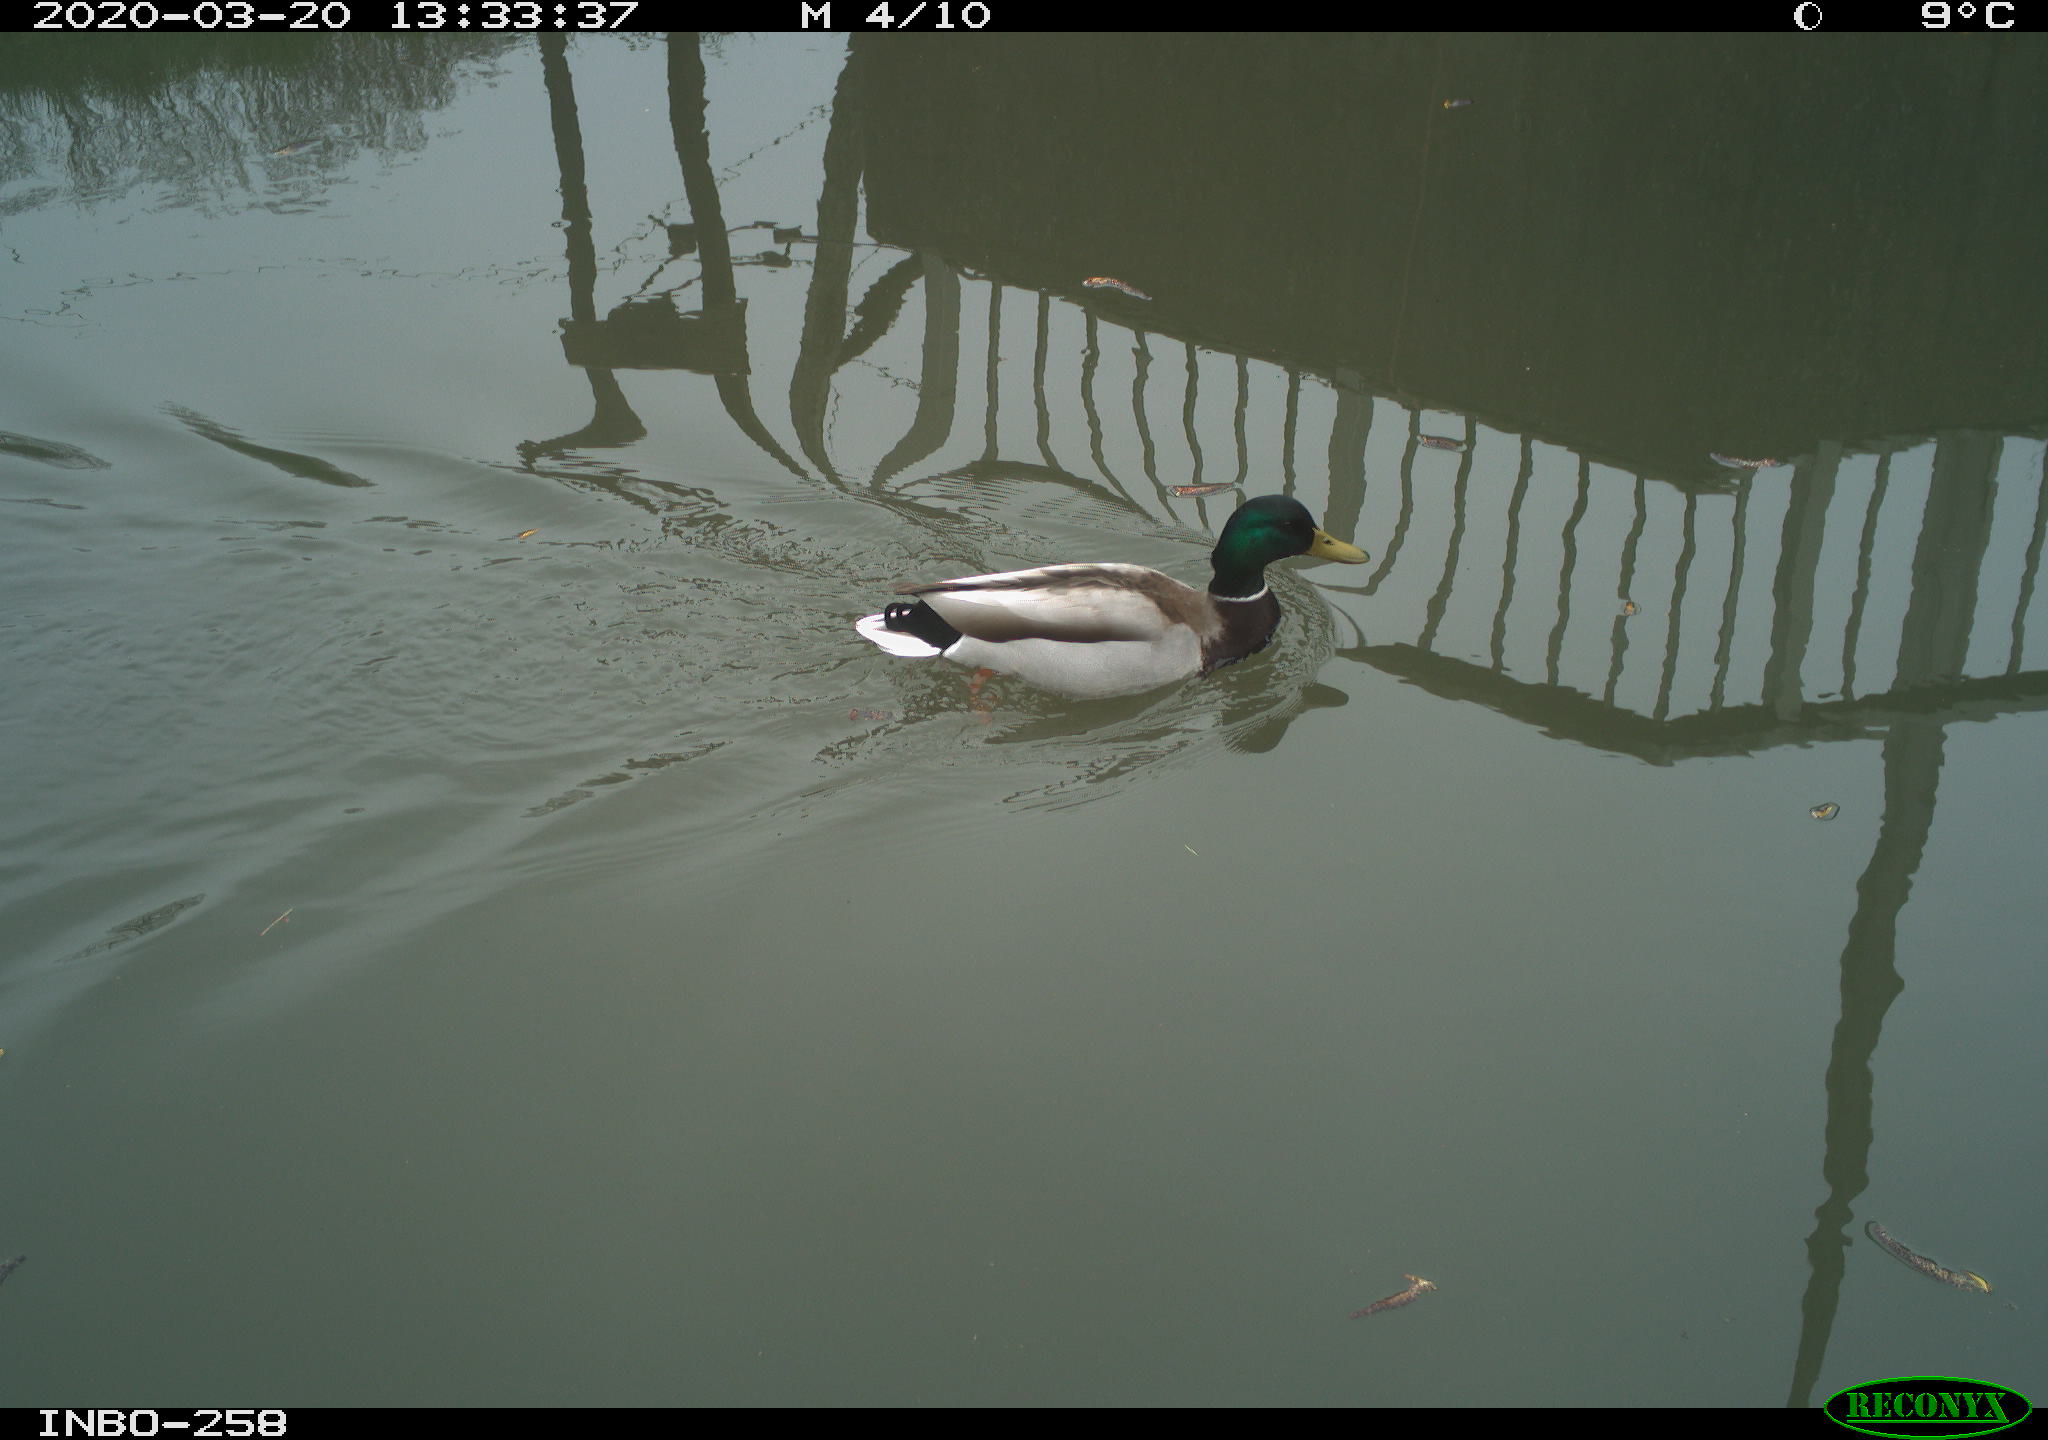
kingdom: Animalia
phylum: Chordata
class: Aves
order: Anseriformes
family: Anatidae
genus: Anas
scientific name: Anas platyrhynchos
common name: Mallard
